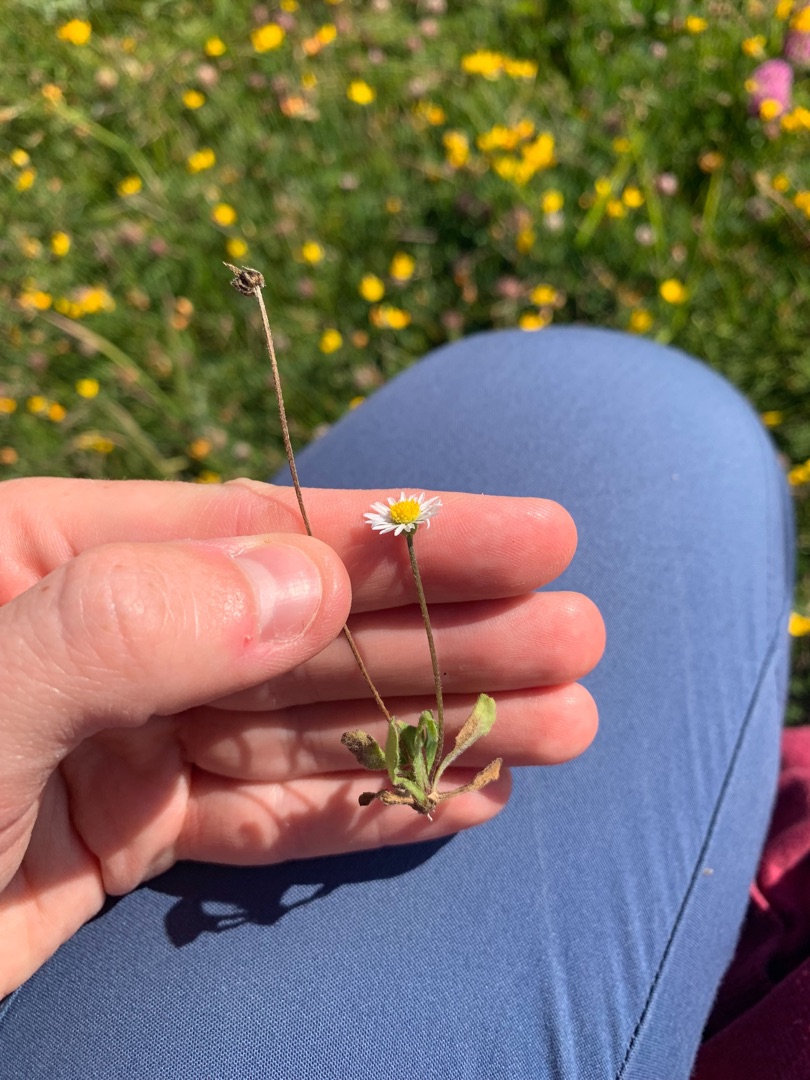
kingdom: Plantae
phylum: Tracheophyta
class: Magnoliopsida
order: Asterales
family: Asteraceae
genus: Bellis
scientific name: Bellis perennis
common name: Tusindfryd
